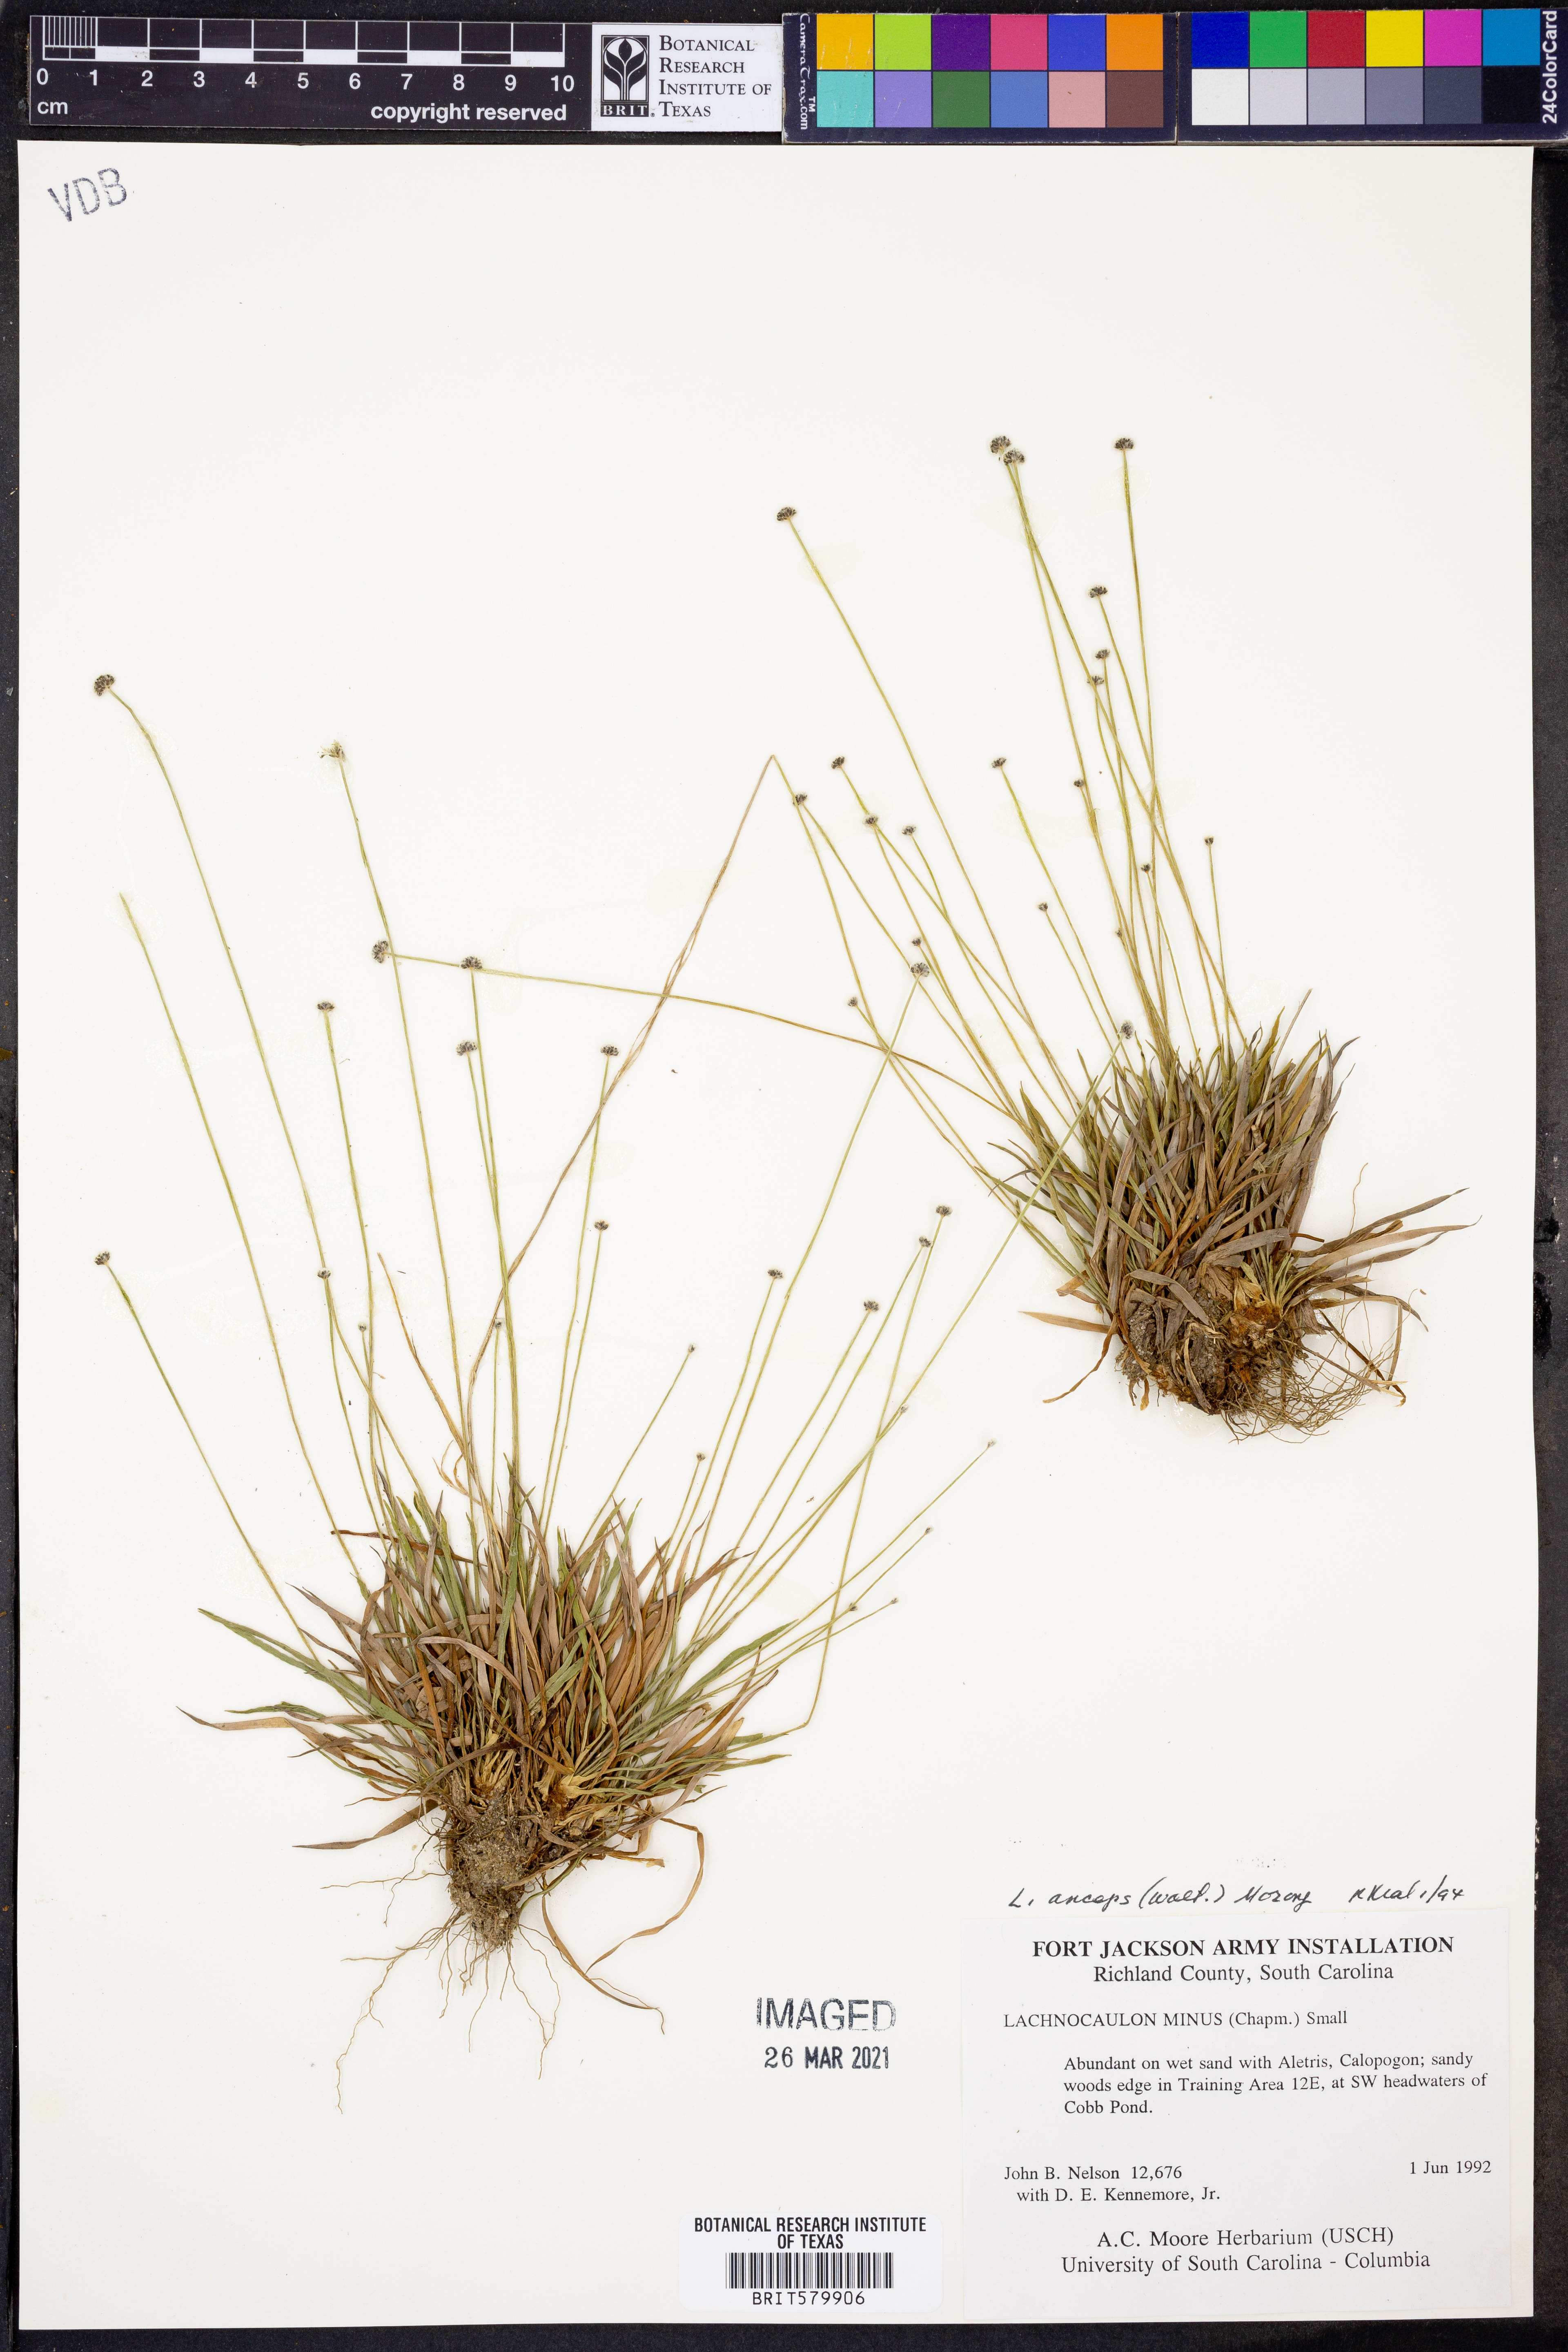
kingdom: Plantae
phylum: Tracheophyta
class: Liliopsida
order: Poales
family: Eriocaulaceae
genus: Paepalanthus
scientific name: Paepalanthus anceps
